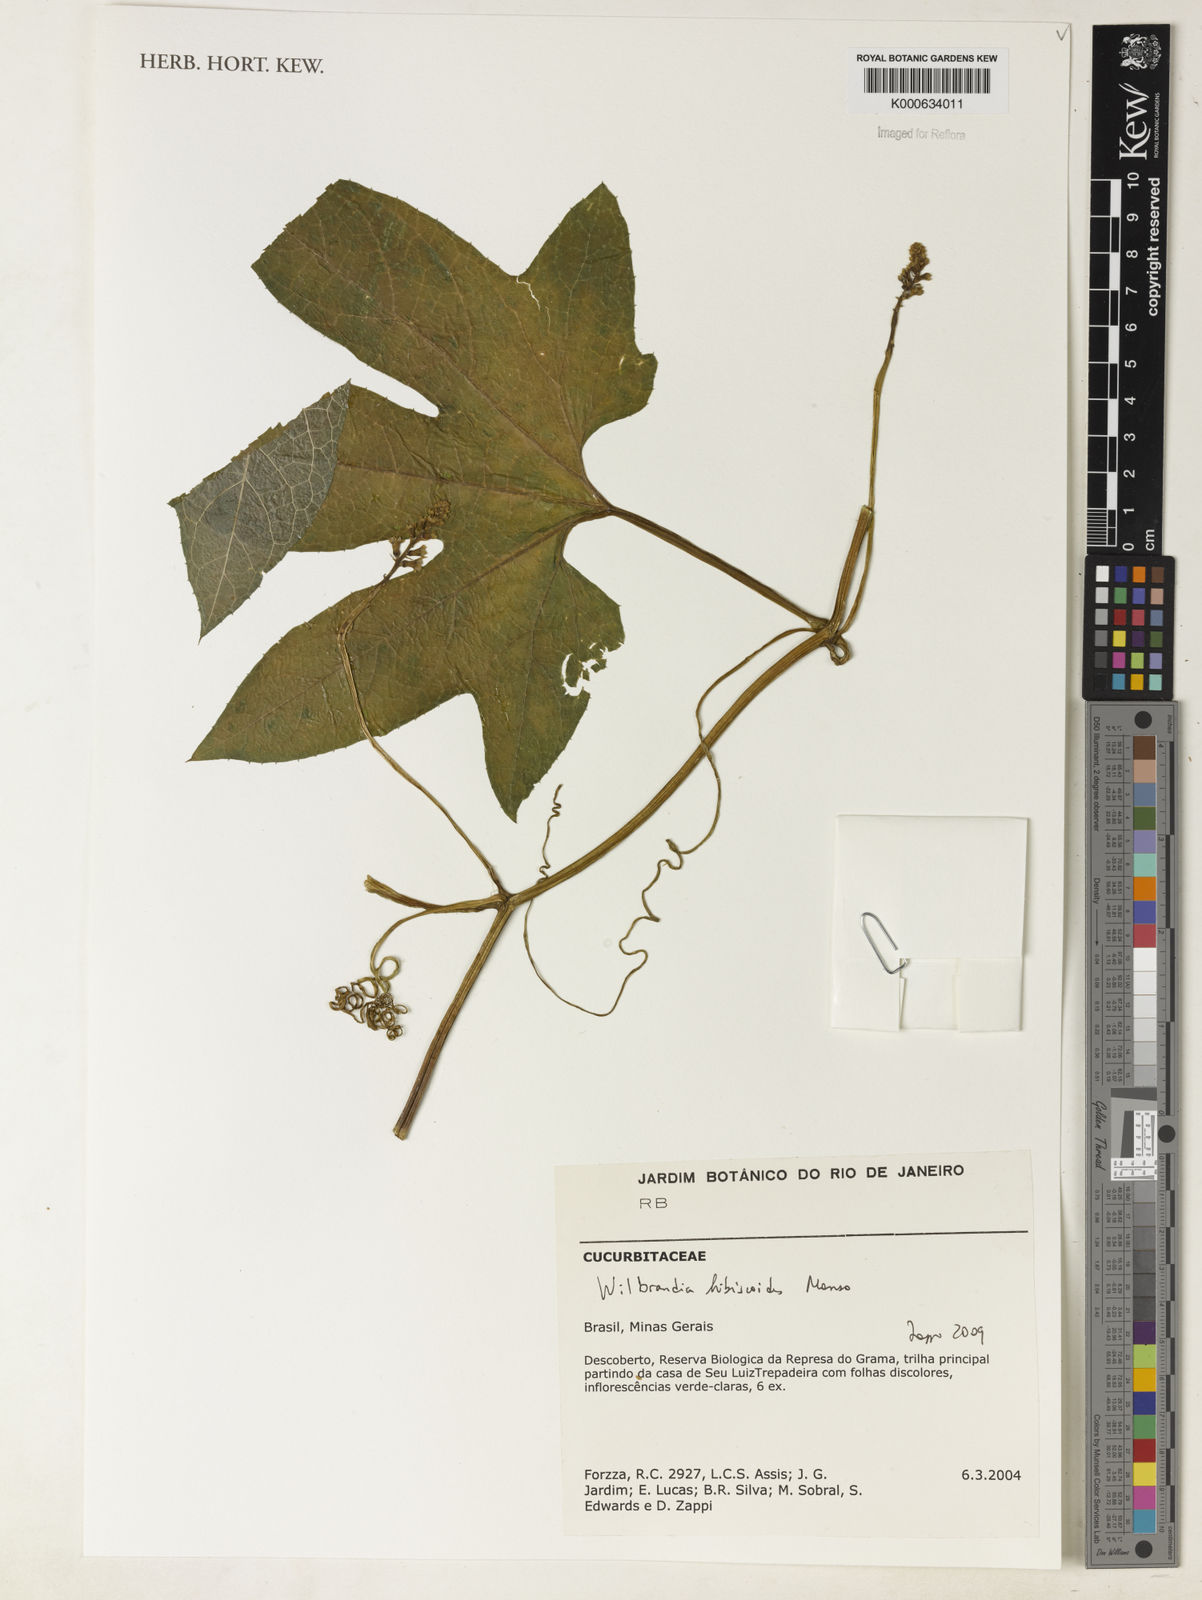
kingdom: Plantae
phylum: Tracheophyta
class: Magnoliopsida
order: Cucurbitales
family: Cucurbitaceae
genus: Echinopepon
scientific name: Echinopepon racemosus
